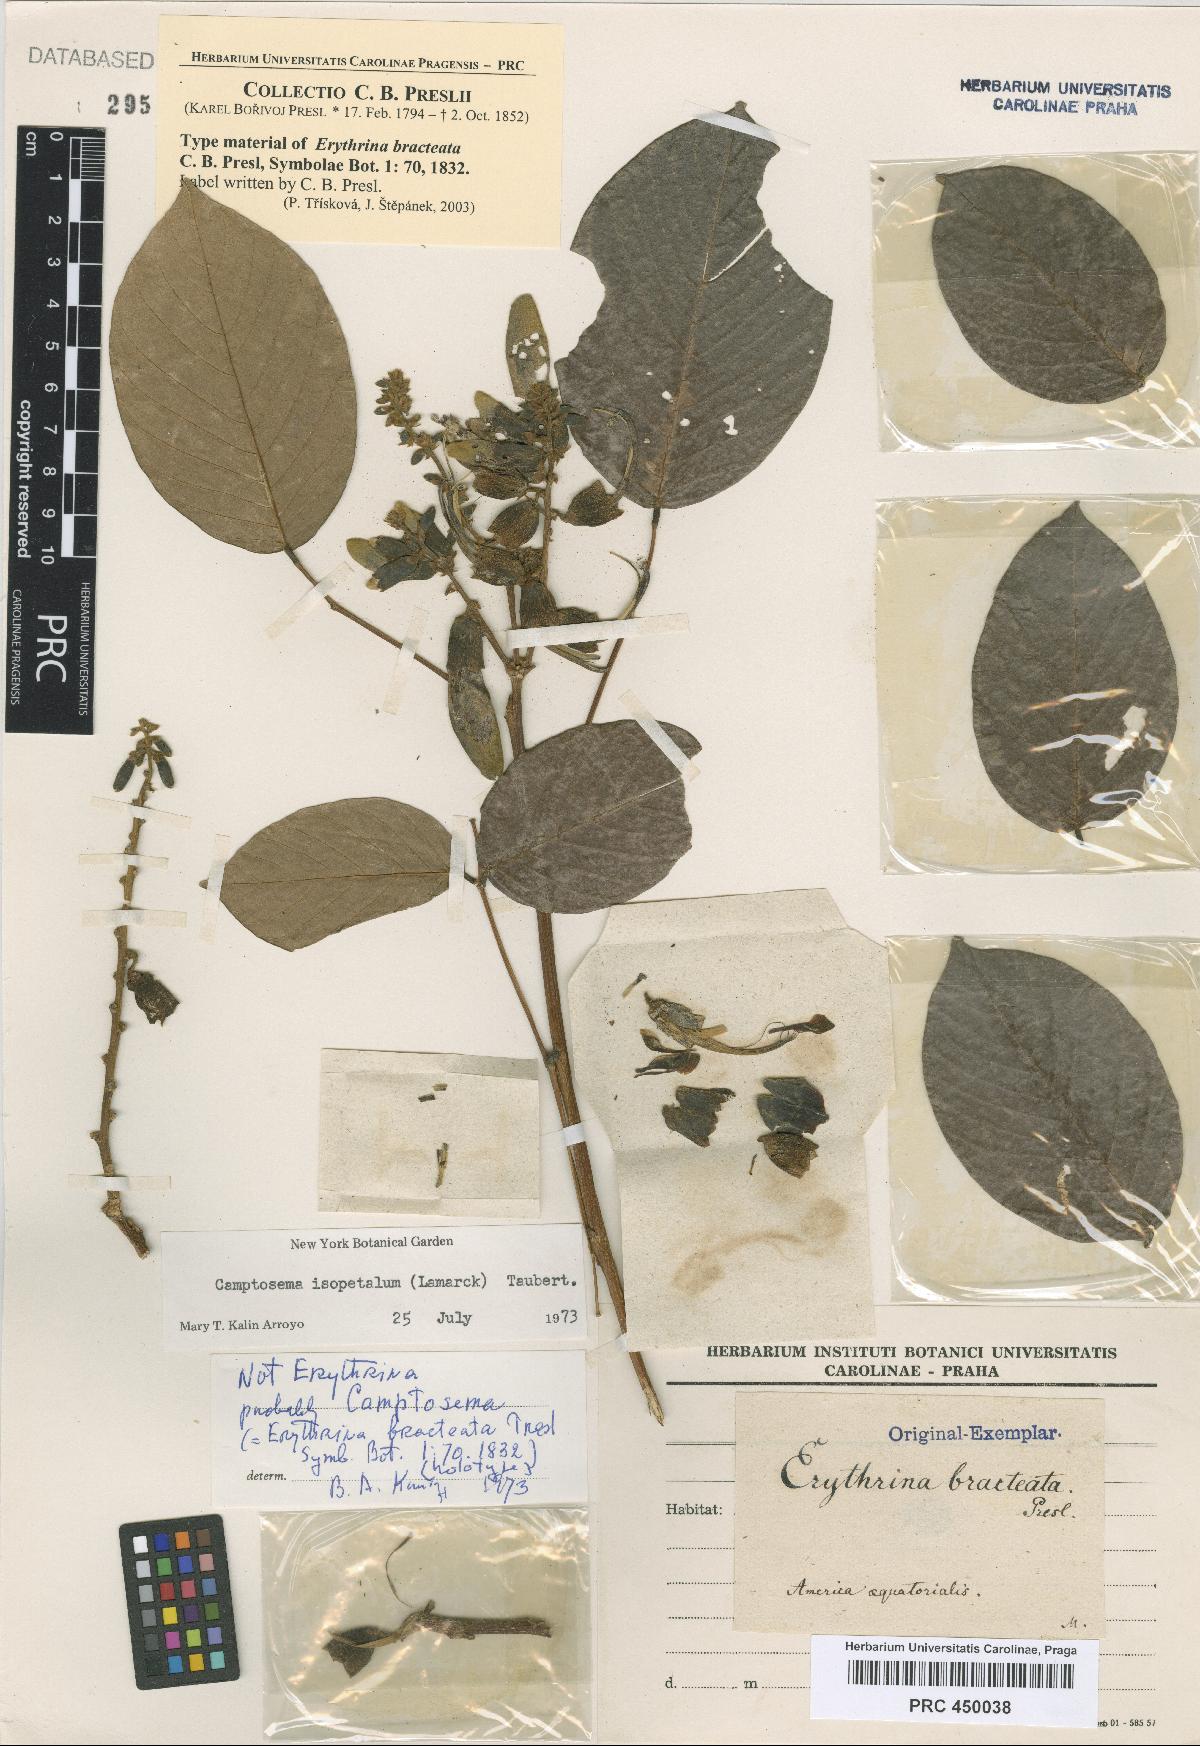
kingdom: Plantae
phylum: Tracheophyta
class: Magnoliopsida
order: Fabales
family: Fabaceae
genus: Cratylia
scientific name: Cratylia isopetala
